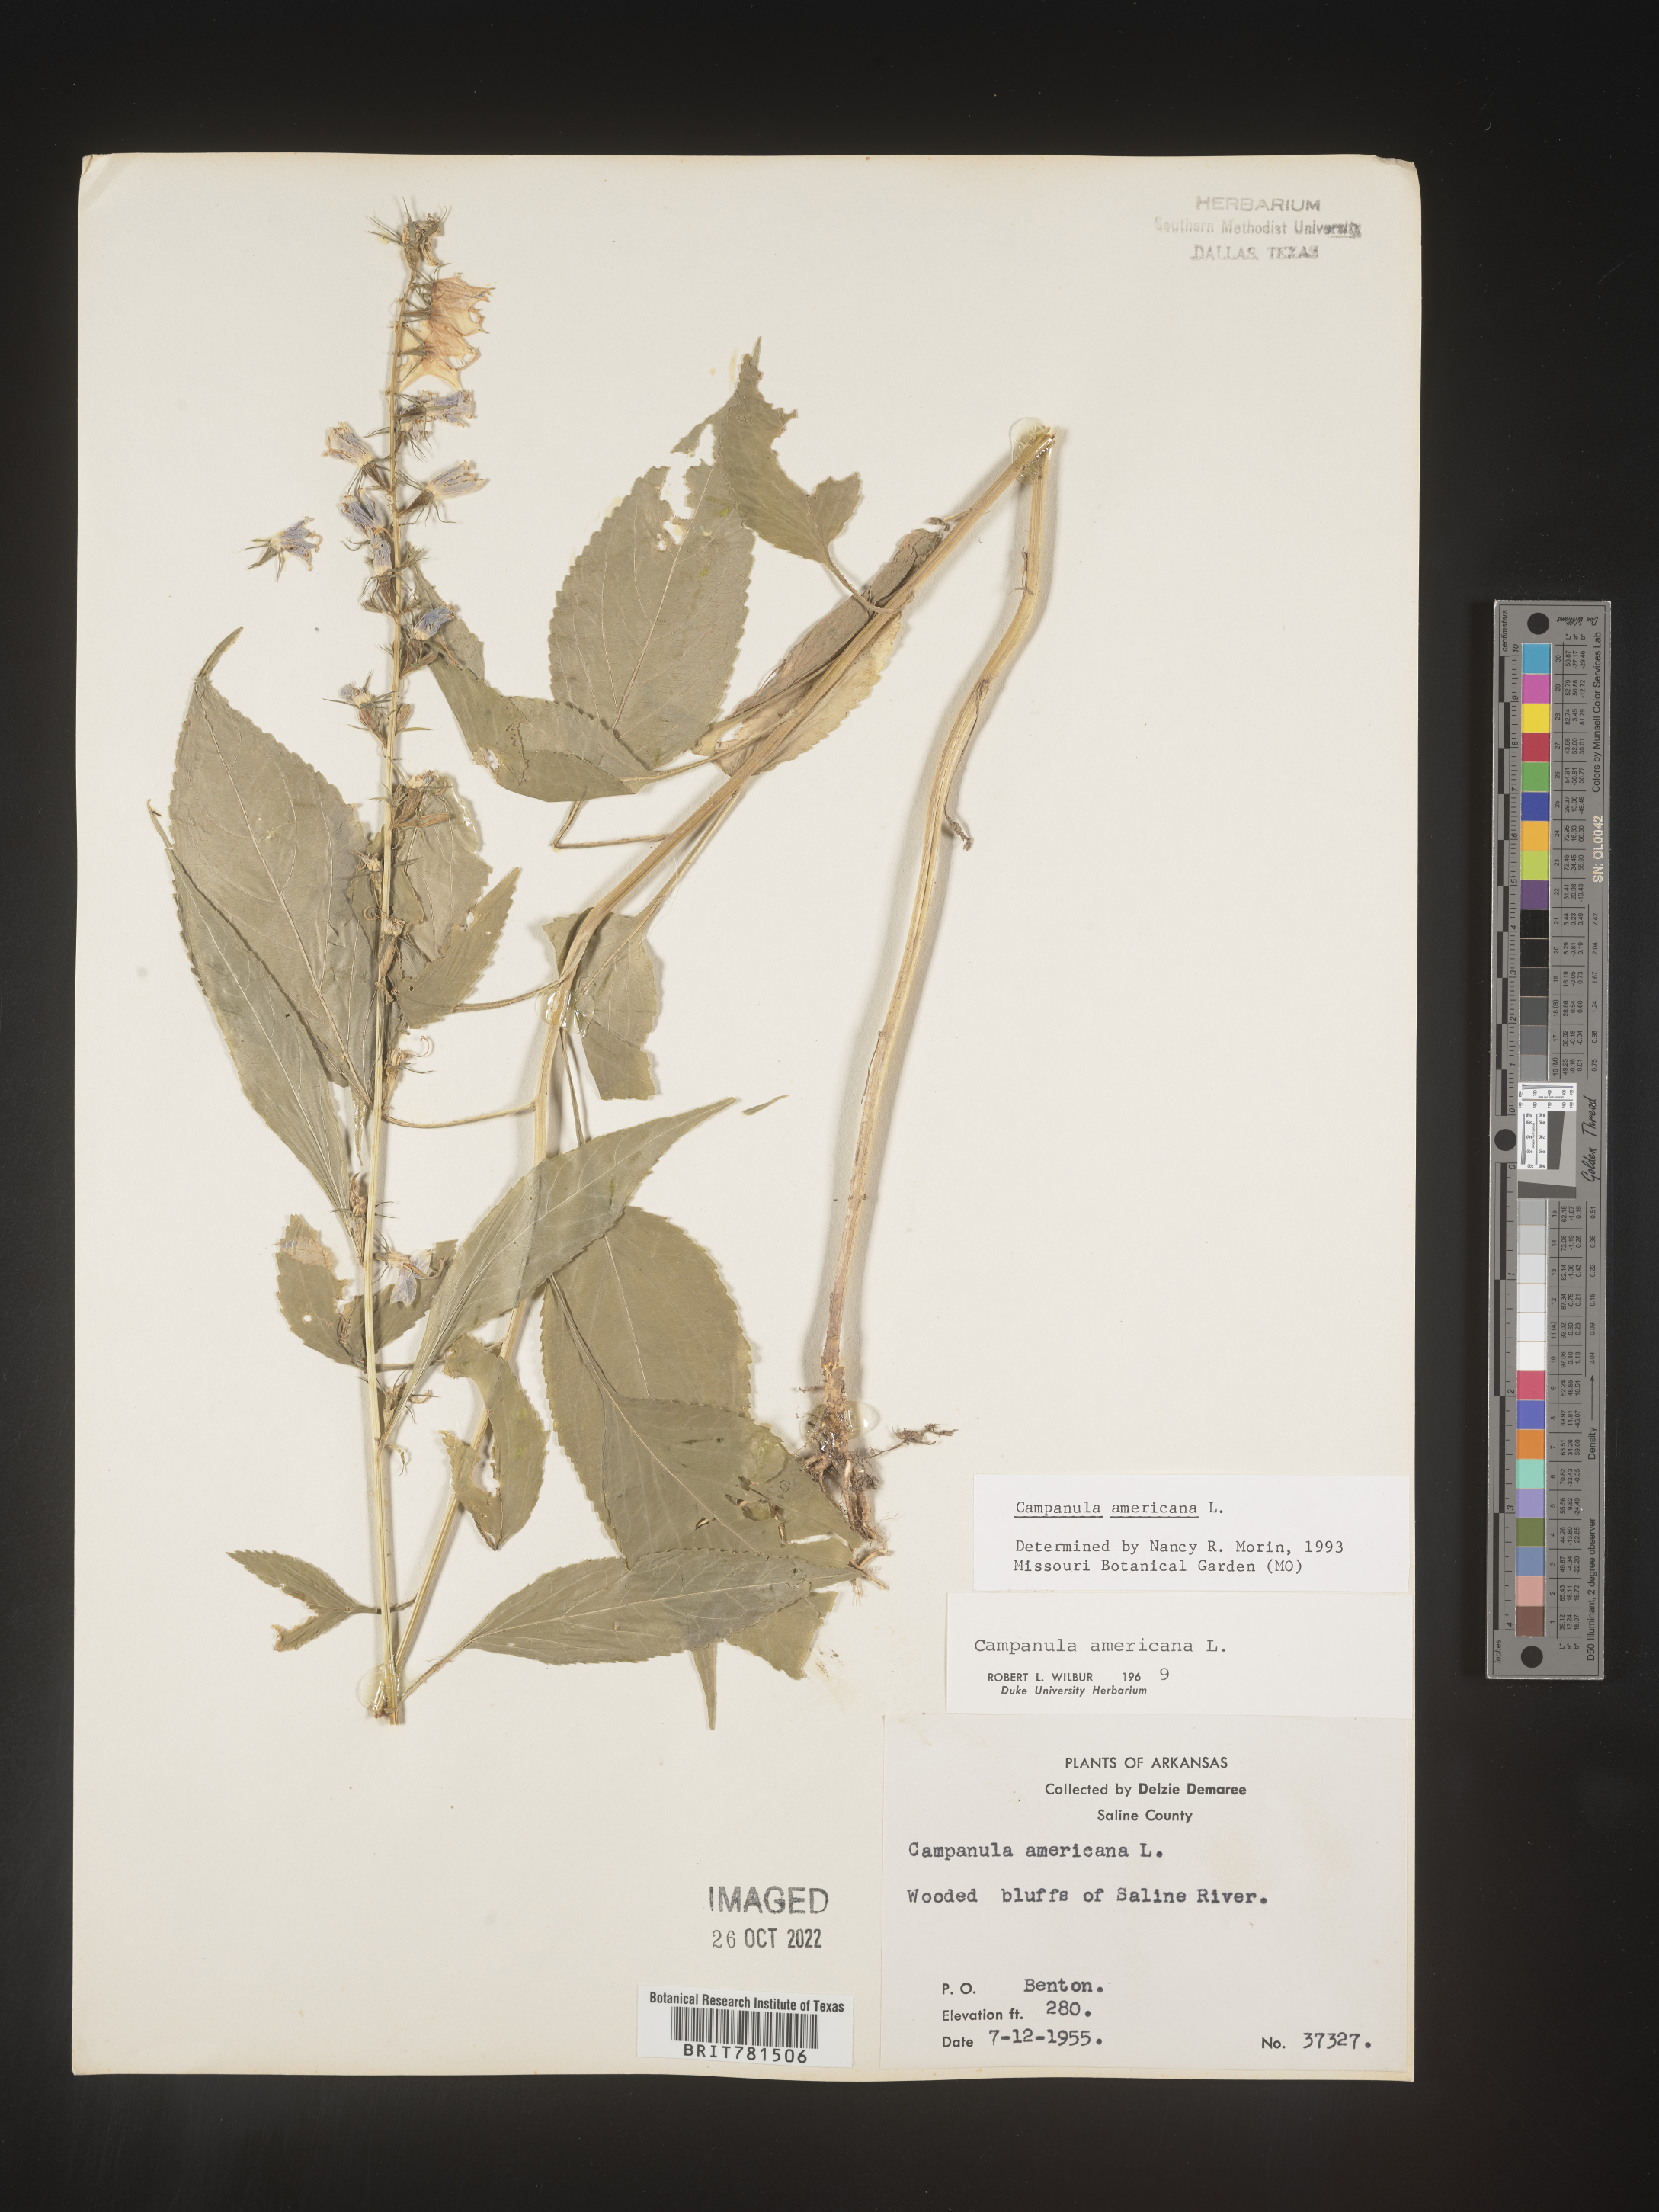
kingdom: Plantae
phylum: Tracheophyta
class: Magnoliopsida
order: Asterales
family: Campanulaceae
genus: Campanula
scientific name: Campanula americana
